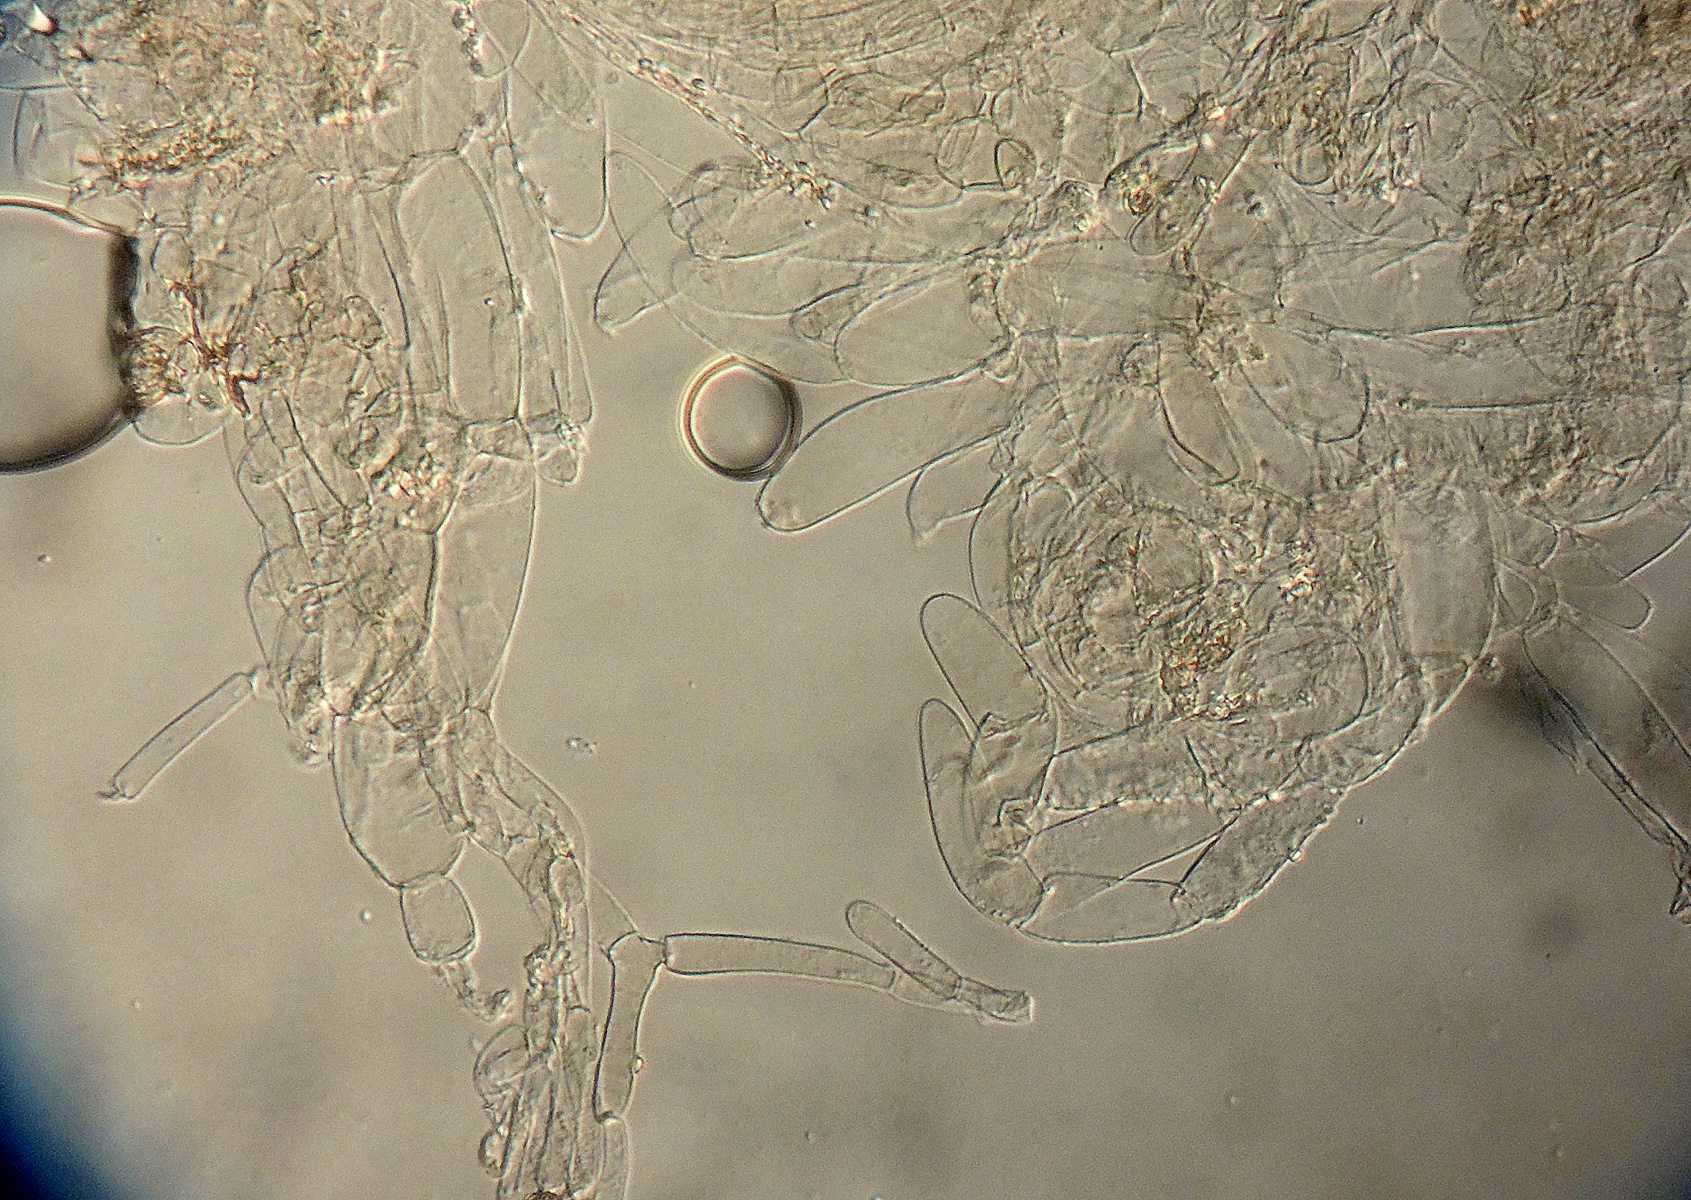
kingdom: Fungi
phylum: Basidiomycota
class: Agaricomycetes
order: Agaricales
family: Psathyrellaceae
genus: Coprinopsis
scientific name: Coprinopsis pseudoradiata
